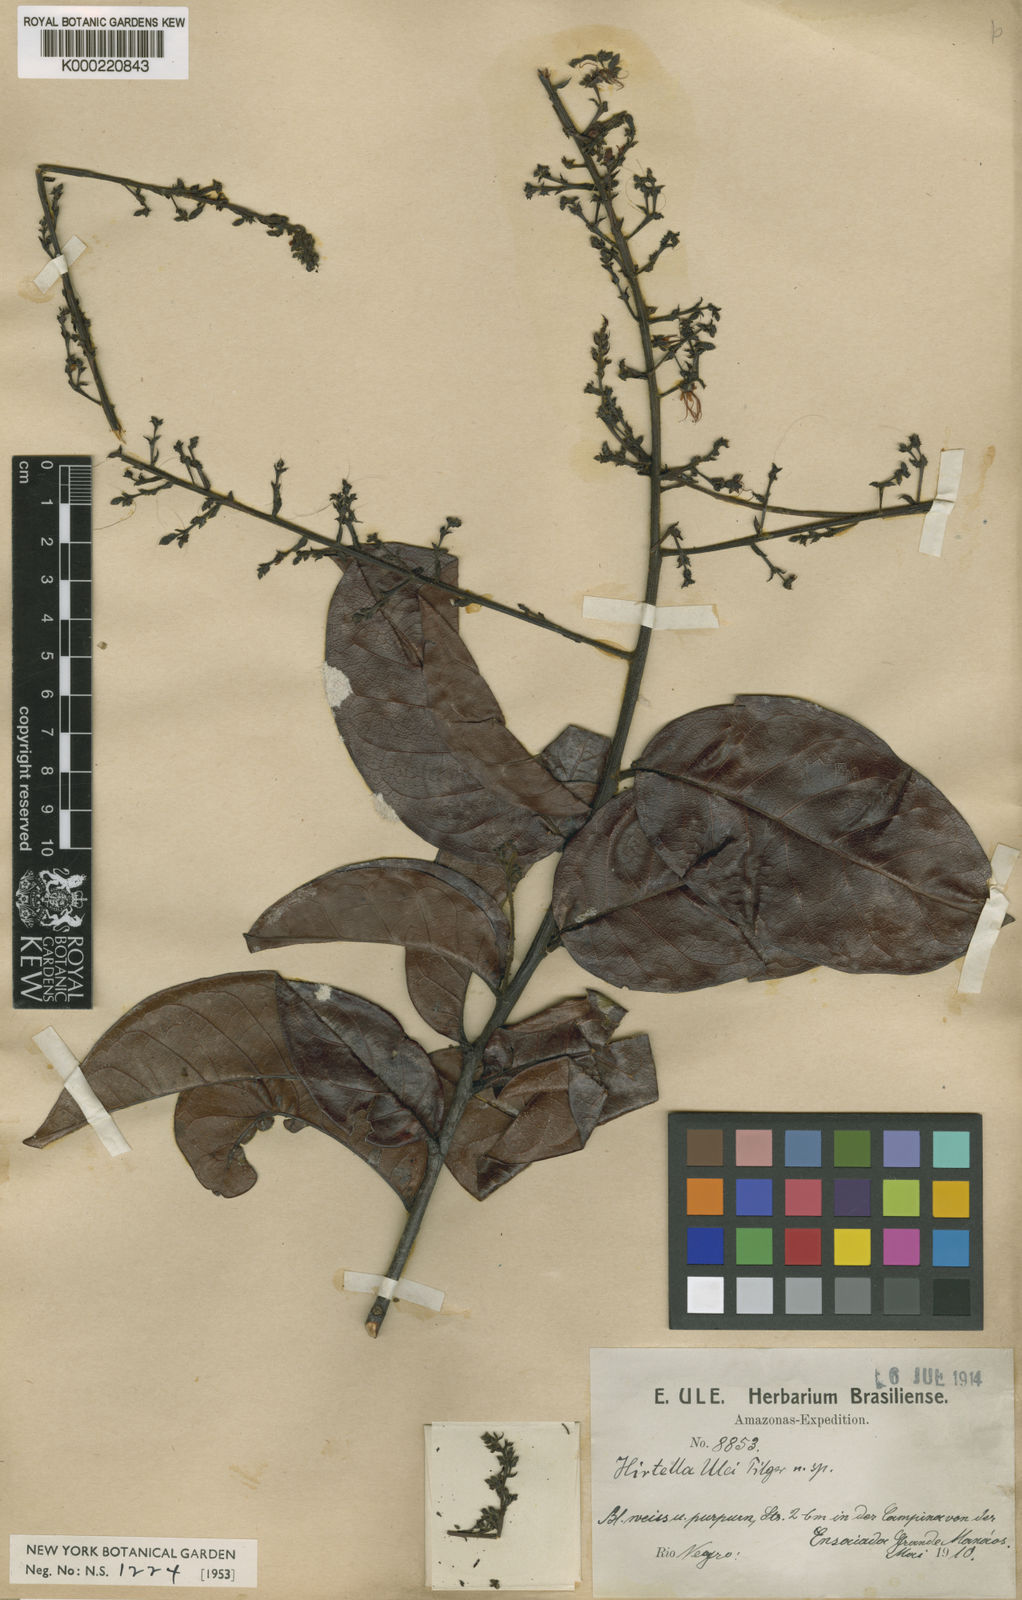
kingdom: Plantae
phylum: Tracheophyta
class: Magnoliopsida
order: Malpighiales
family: Chrysobalanaceae
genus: Hirtella
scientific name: Hirtella ulei
